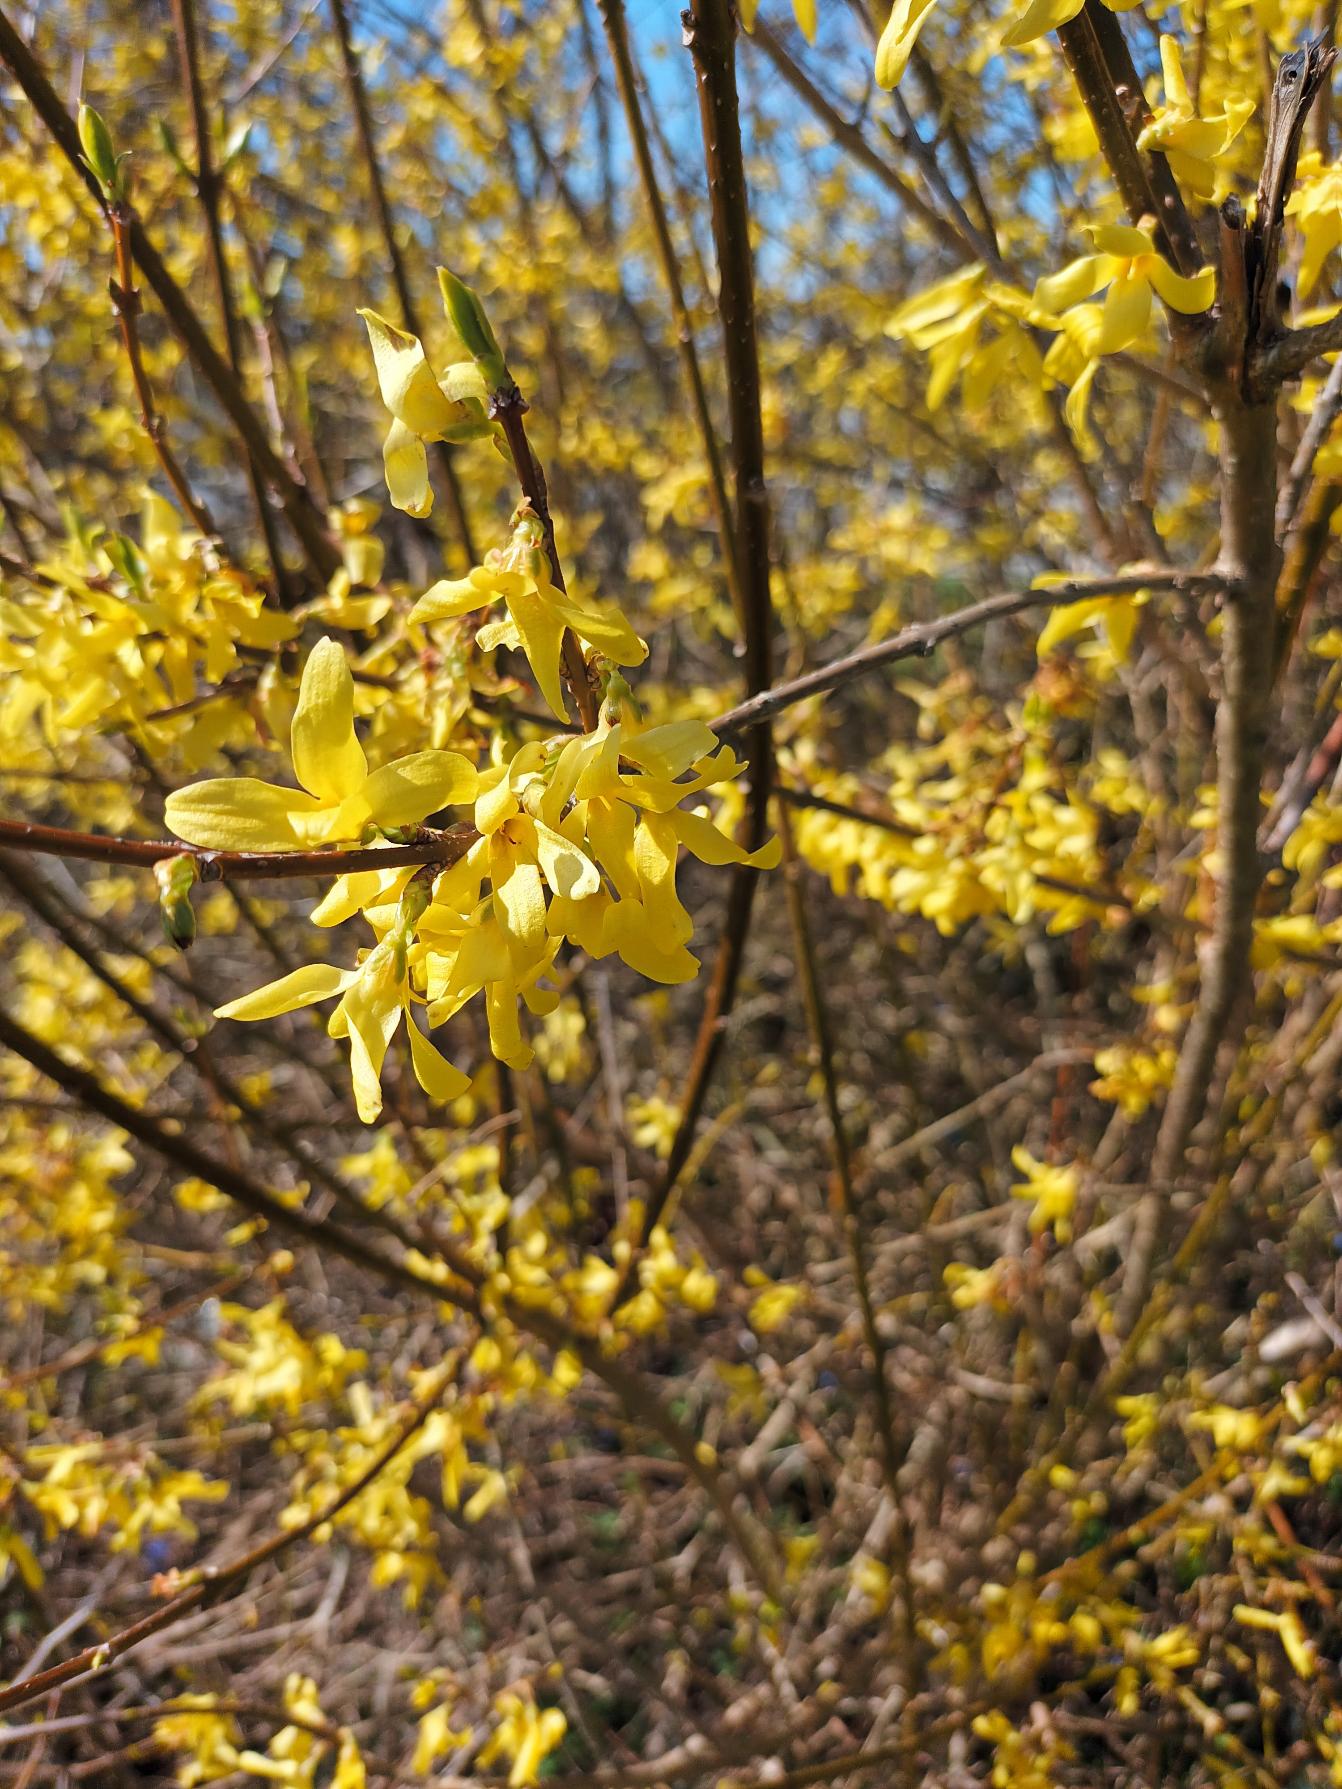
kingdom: Plantae
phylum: Tracheophyta
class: Magnoliopsida
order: Lamiales
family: Oleaceae
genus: Forsythia
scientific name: Forsythia intermedia
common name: Have-forsythia
